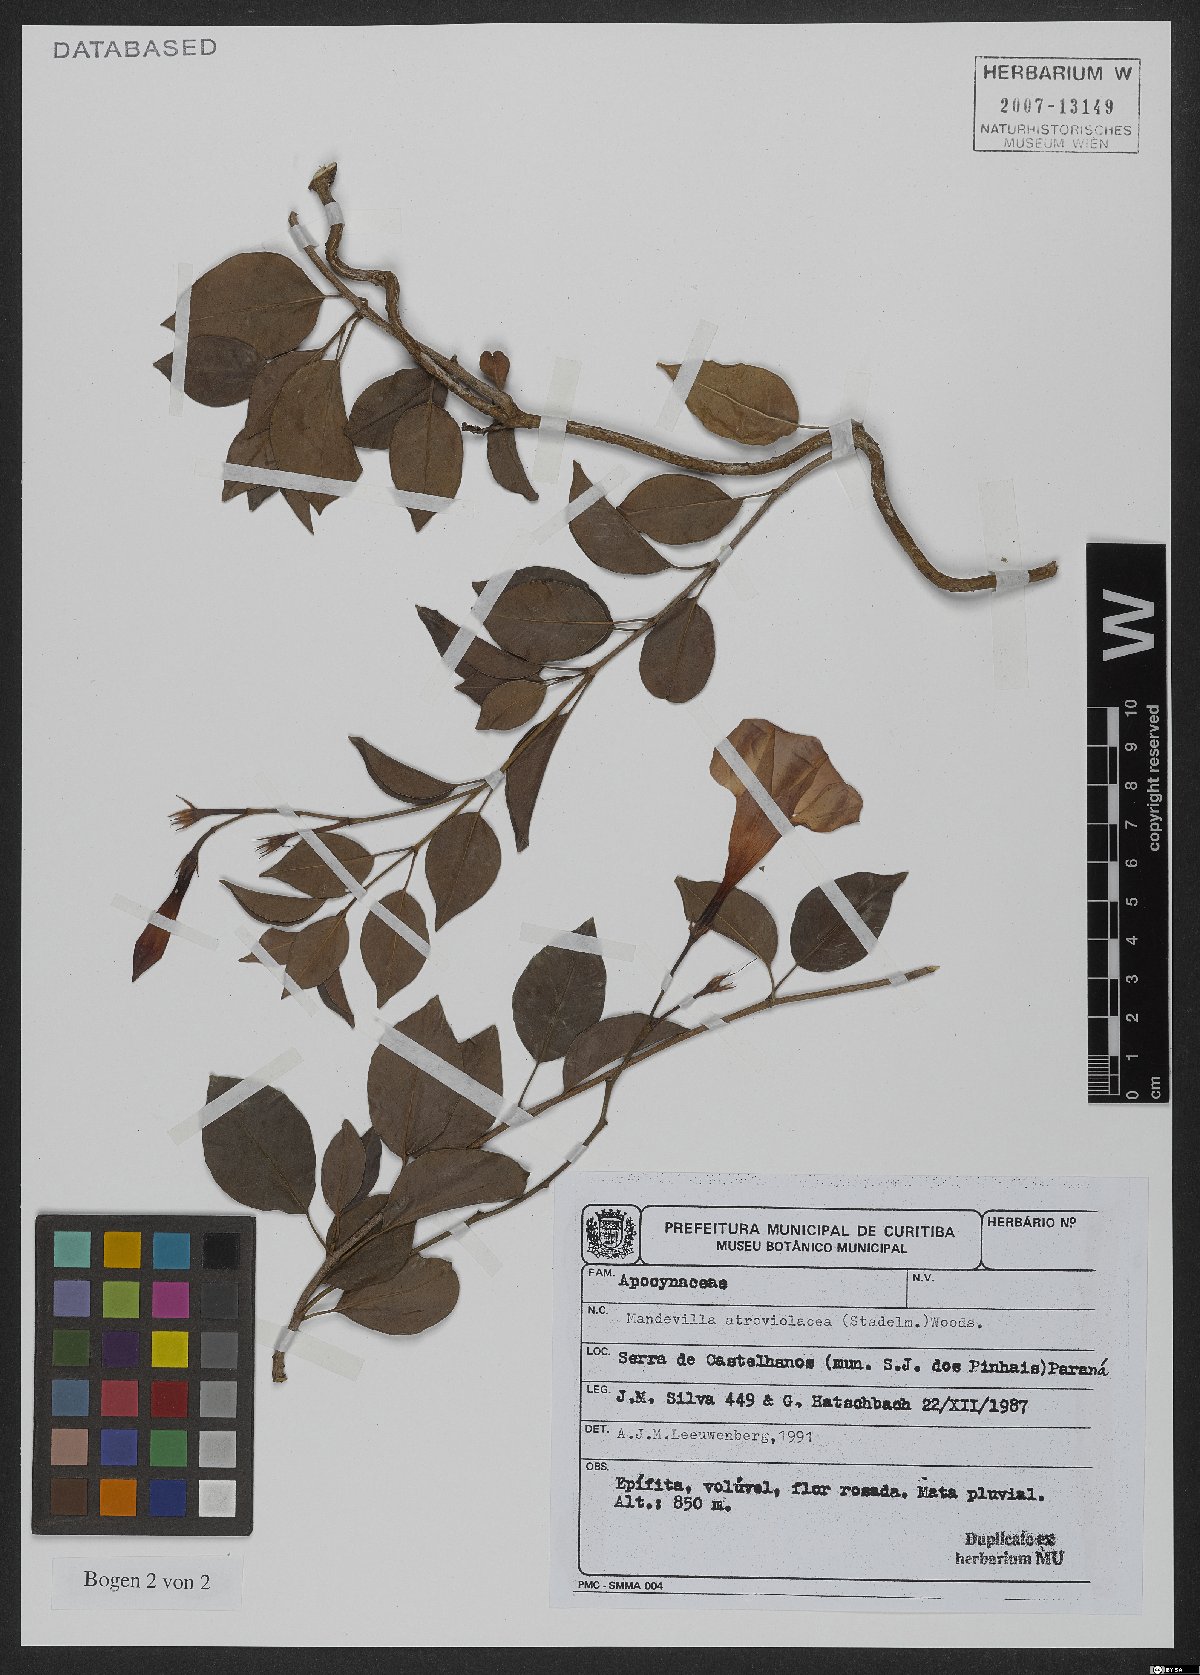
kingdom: Plantae
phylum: Tracheophyta
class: Magnoliopsida
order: Gentianales
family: Apocynaceae
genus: Mandevilla
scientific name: Mandevilla atroviolacea
